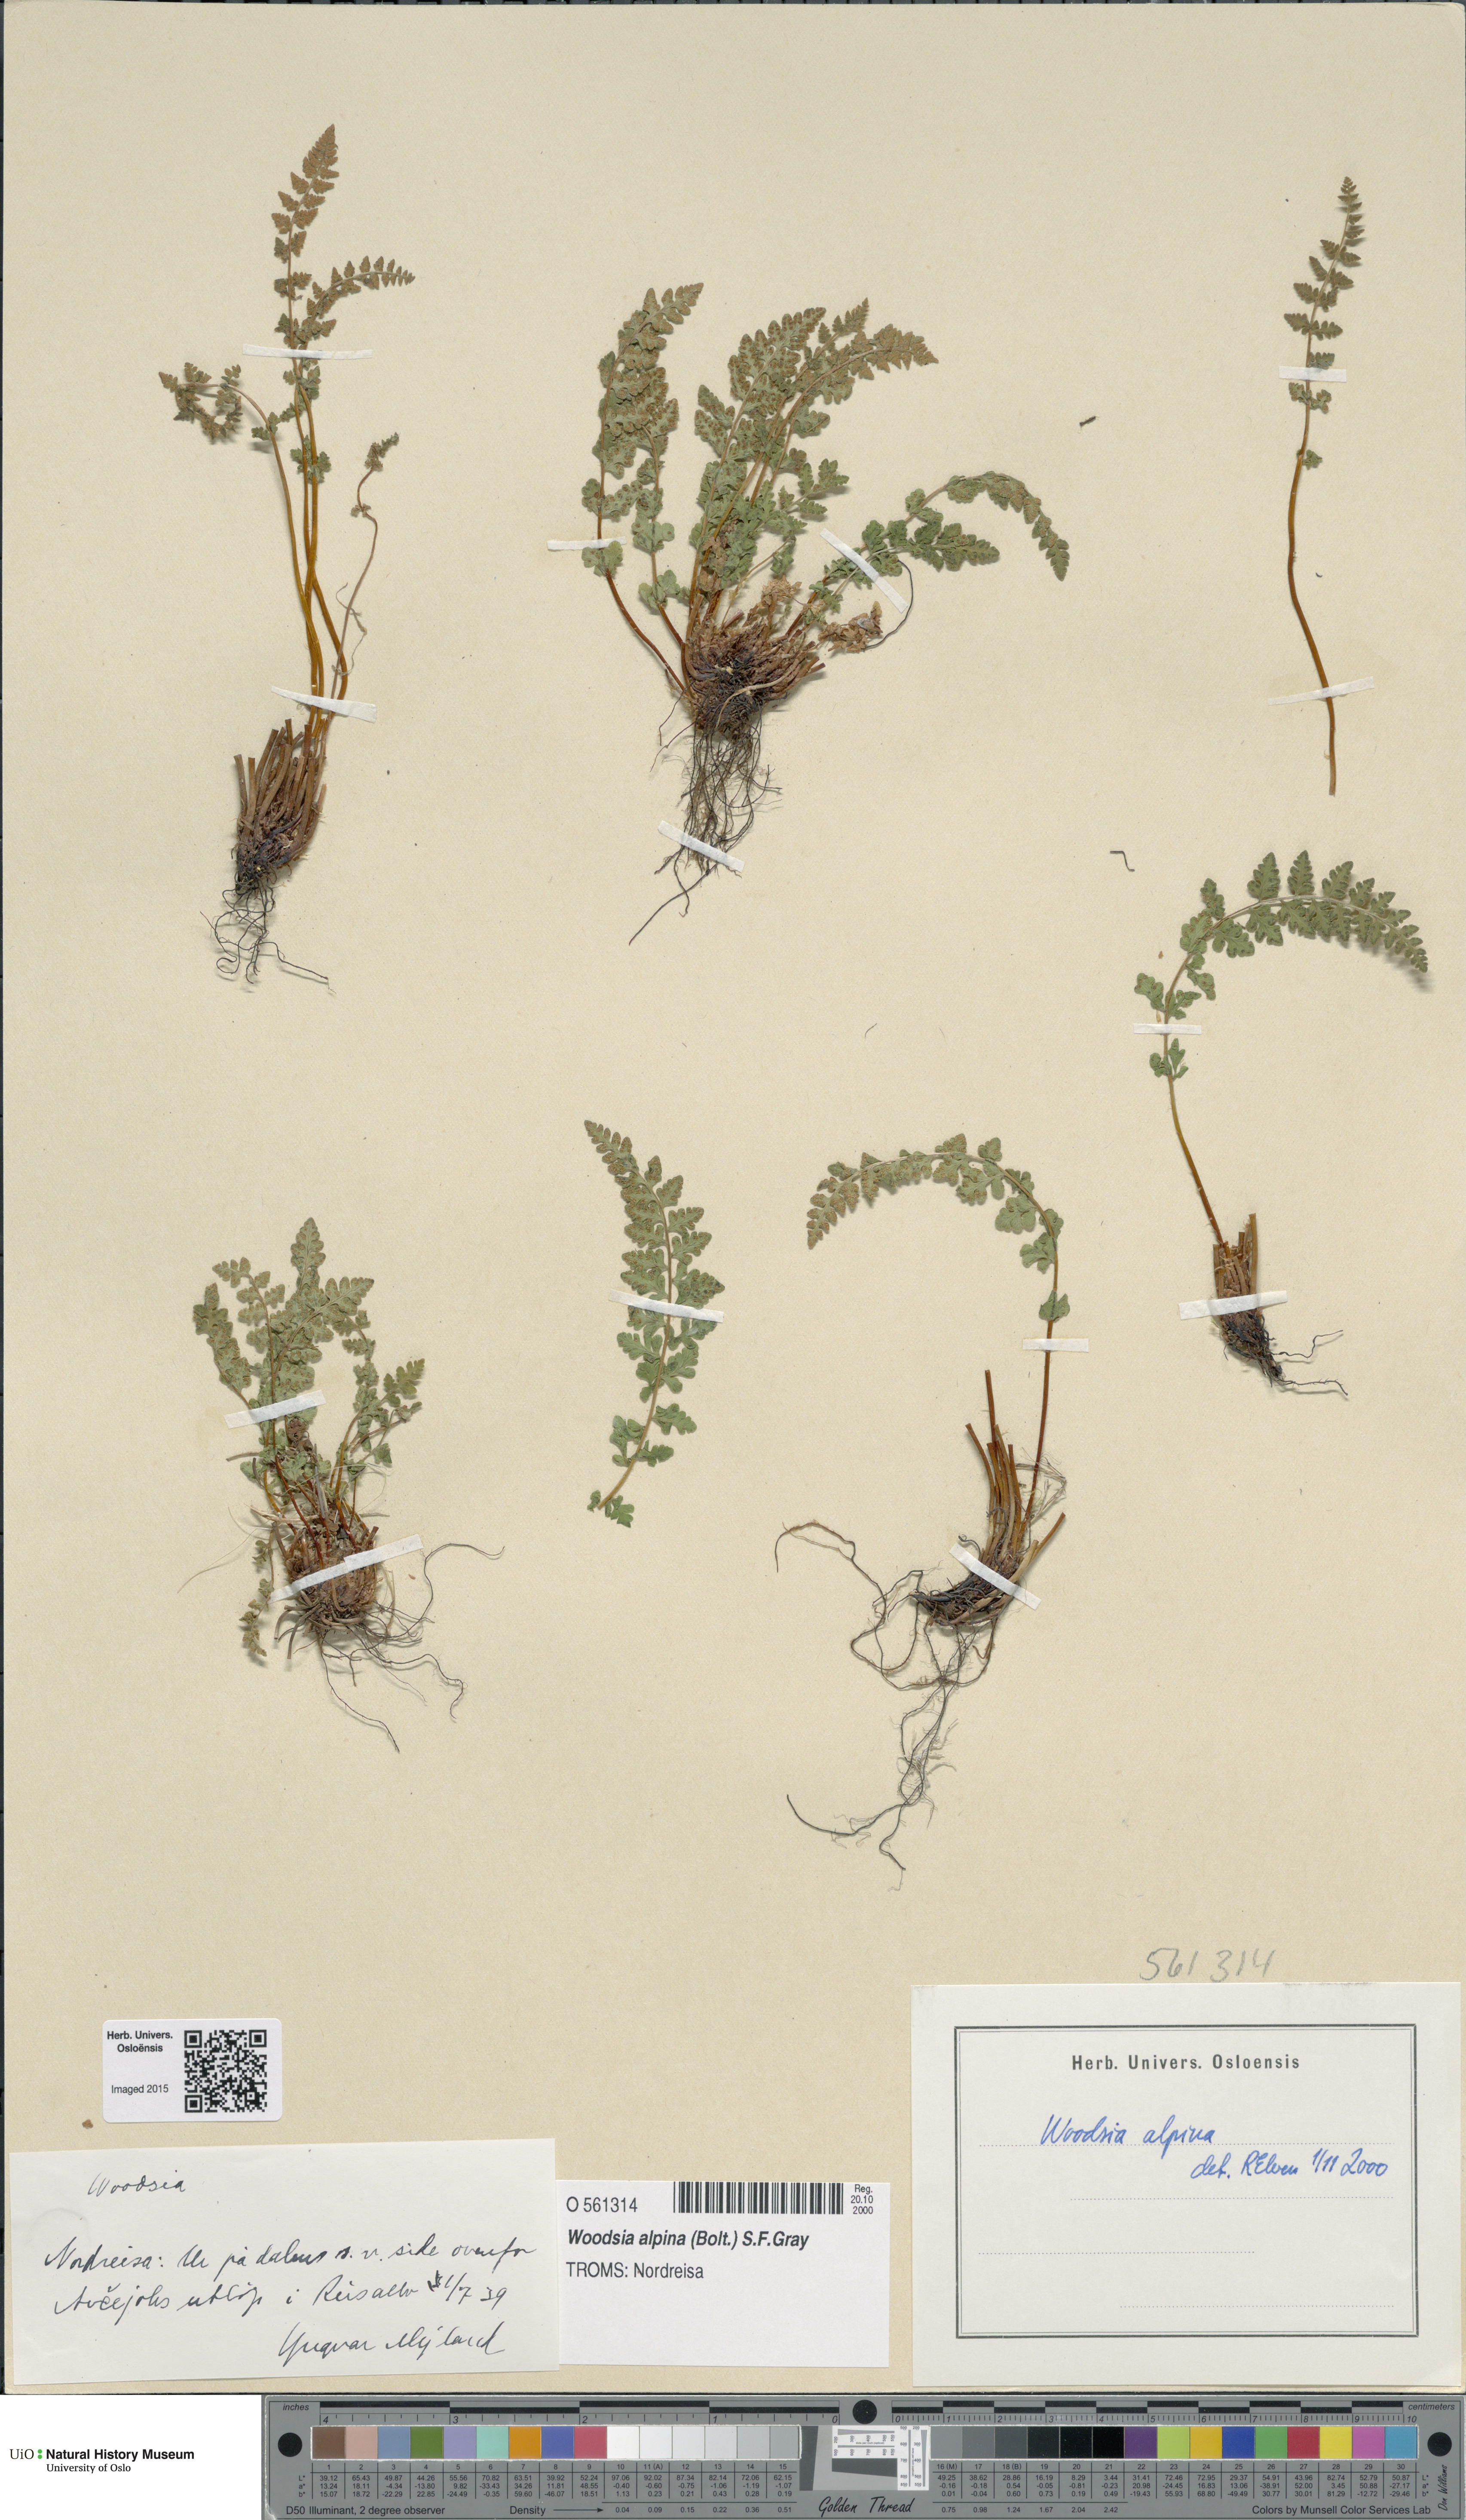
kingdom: Plantae
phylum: Tracheophyta
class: Polypodiopsida
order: Polypodiales
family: Woodsiaceae
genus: Woodsia
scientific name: Woodsia alpina
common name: Alpine woodsia
